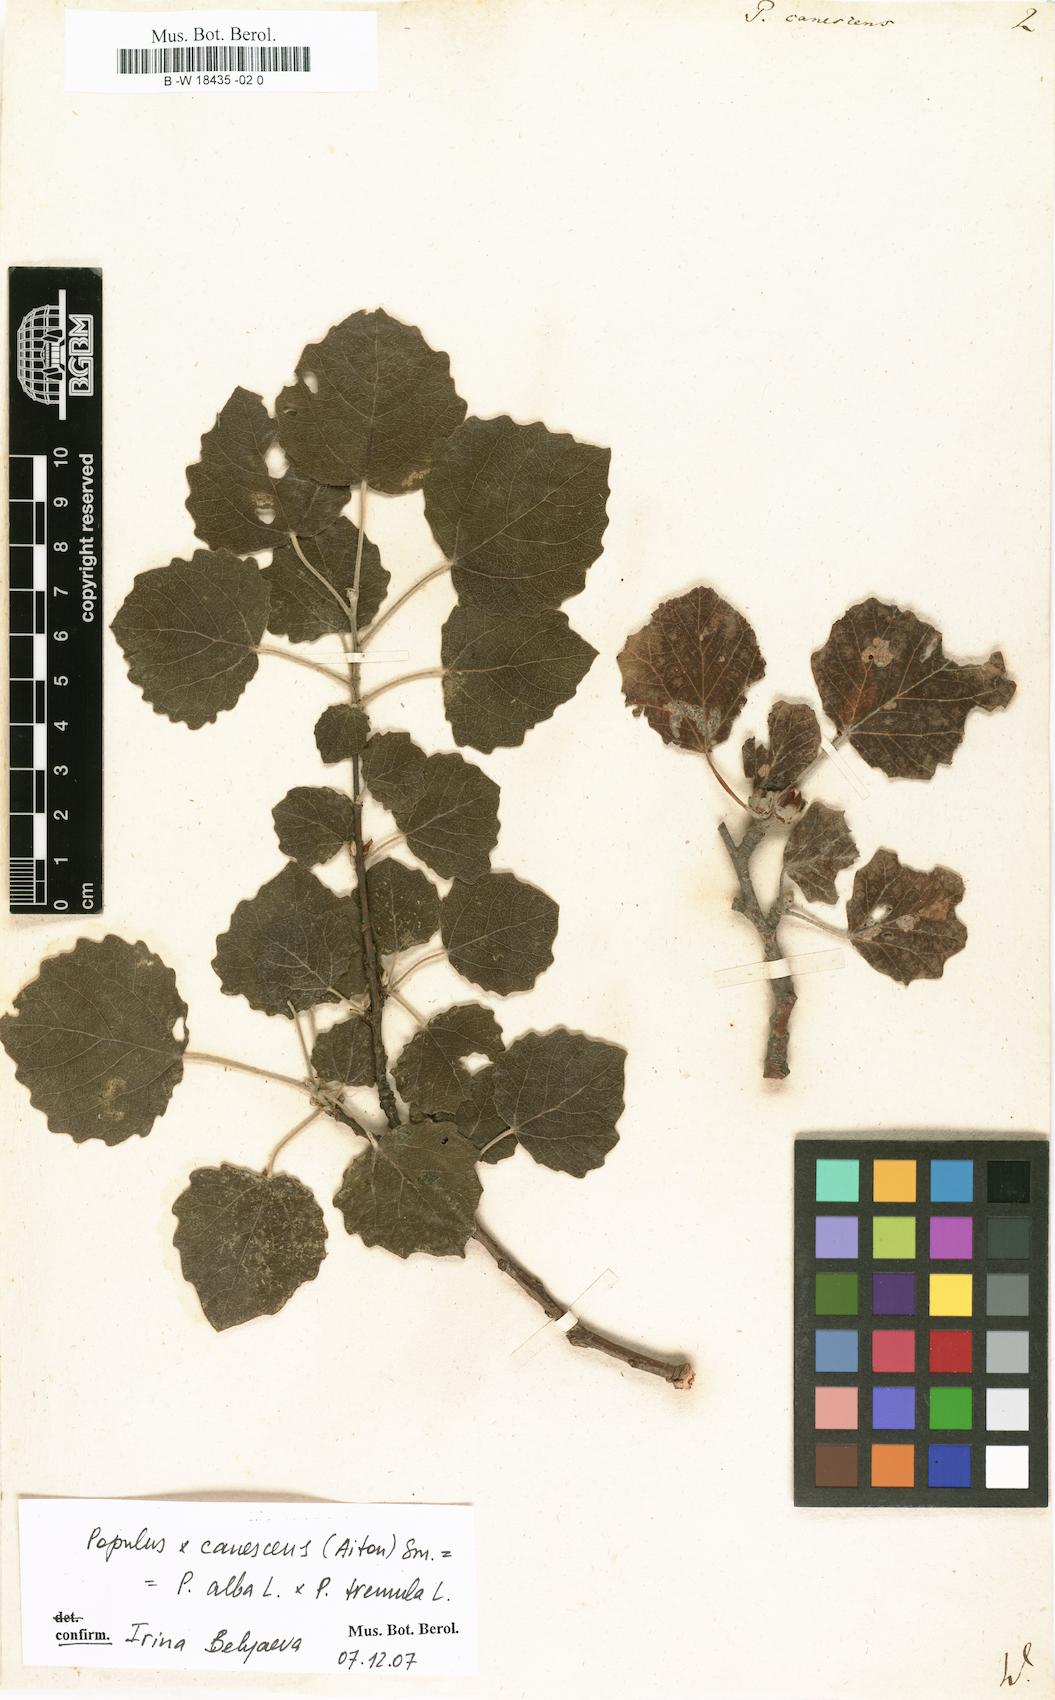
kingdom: Plantae
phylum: Tracheophyta
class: Magnoliopsida
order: Malpighiales
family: Salicaceae
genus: Populus
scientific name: Populus canescens
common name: Gray poplar
